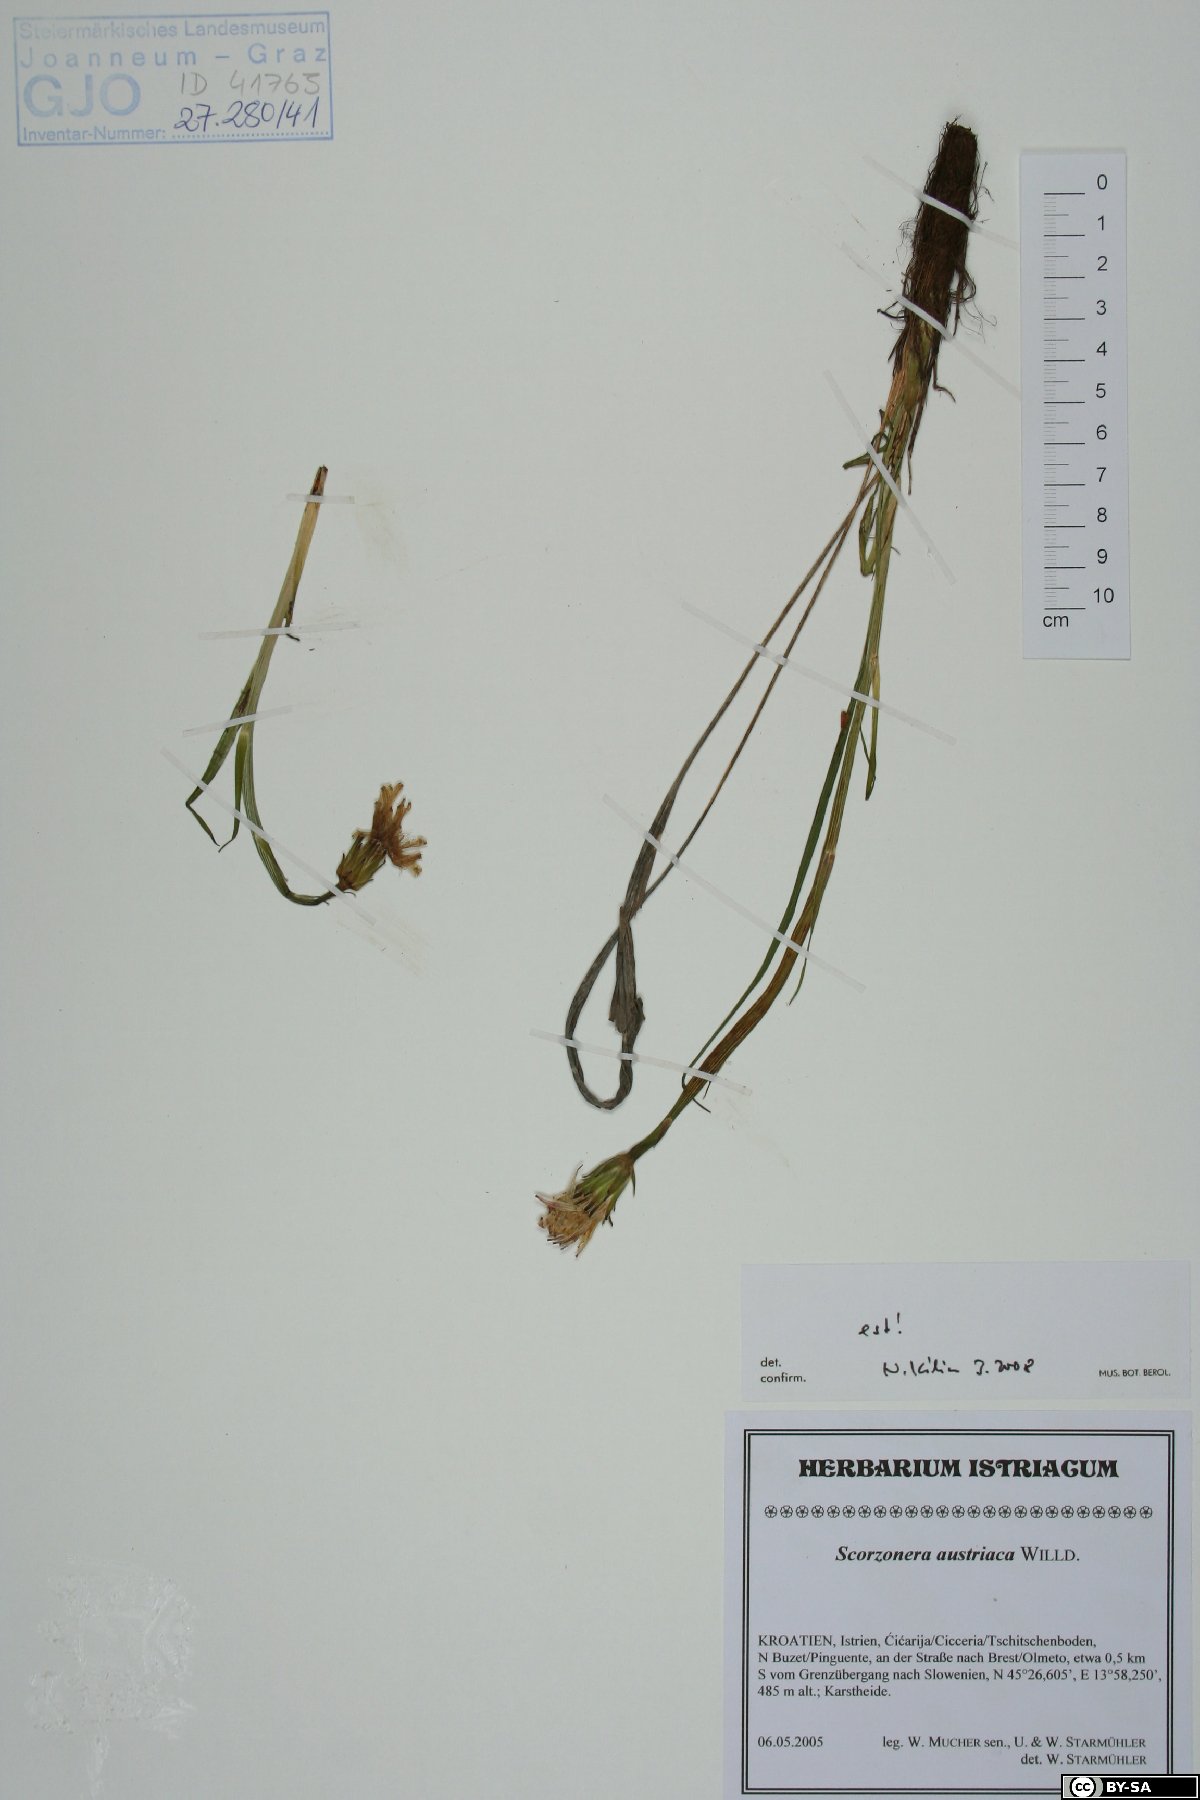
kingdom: Plantae
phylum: Tracheophyta
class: Magnoliopsida
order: Asterales
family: Asteraceae
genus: Takhtajaniantha
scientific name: Takhtajaniantha austriaca
